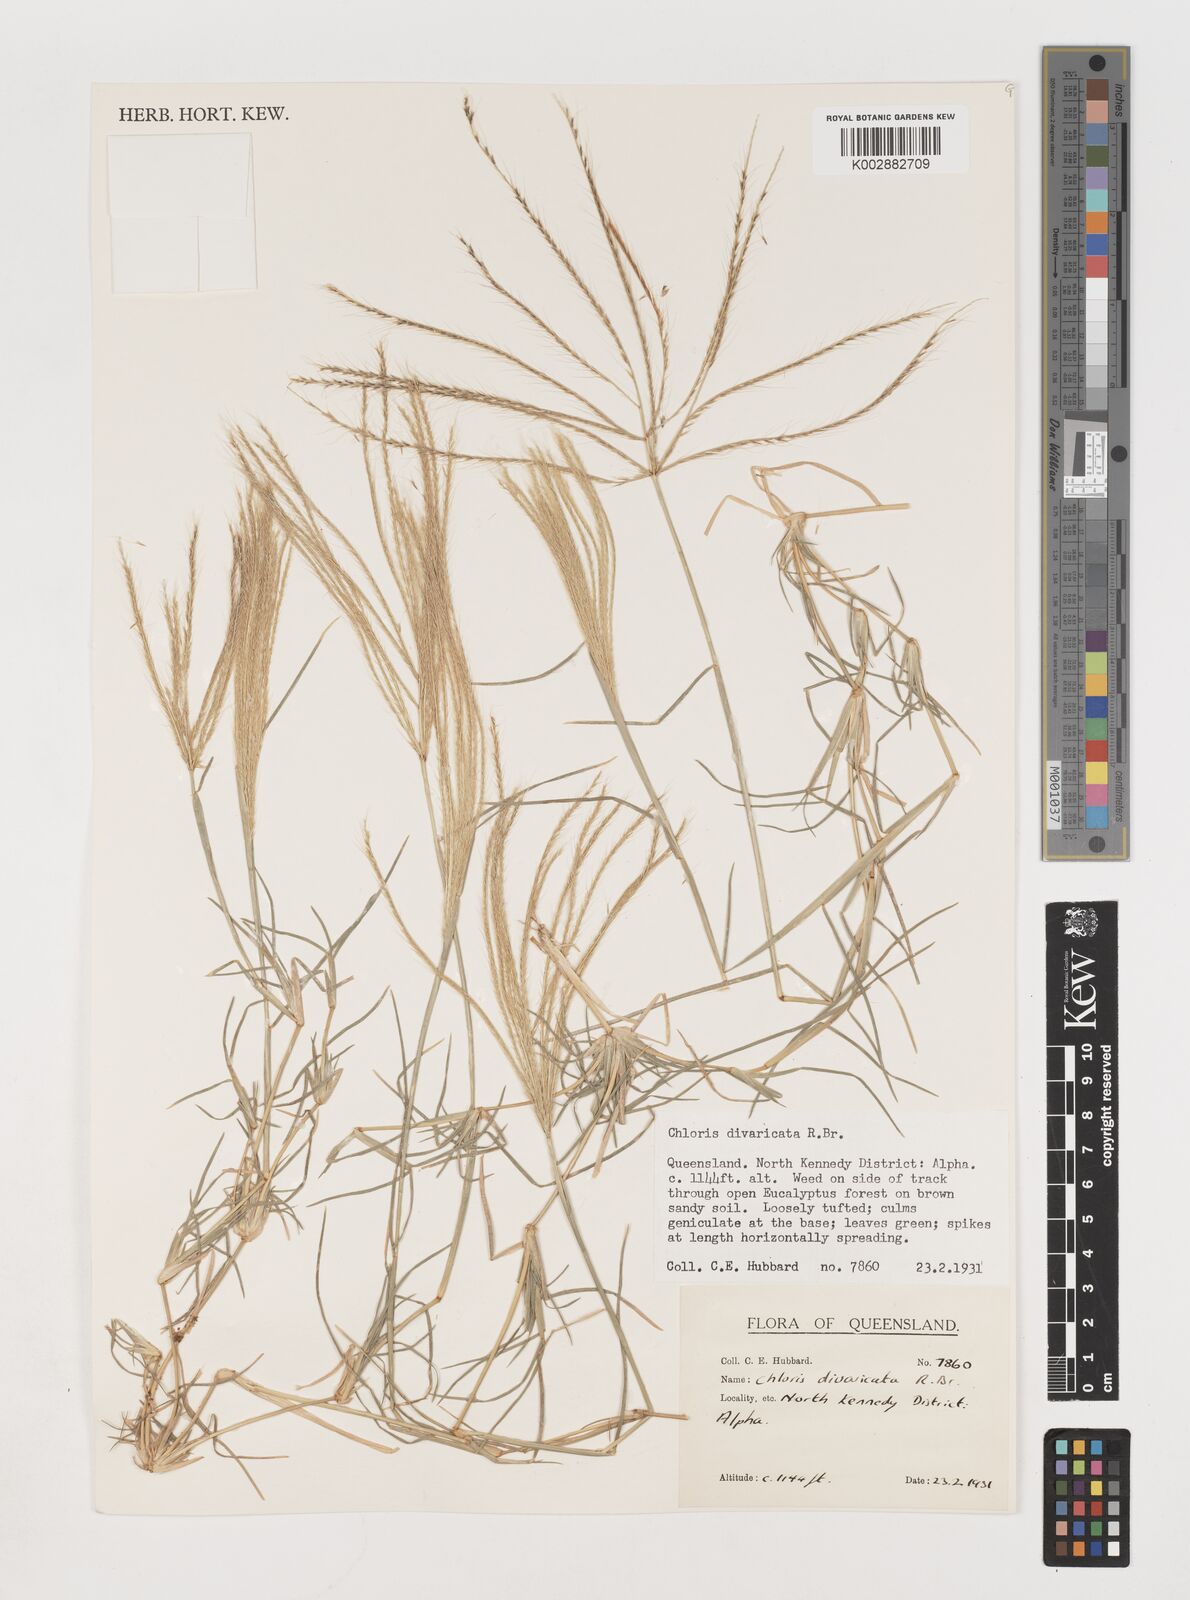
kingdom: Plantae
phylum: Tracheophyta
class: Liliopsida
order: Poales
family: Poaceae
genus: Chloris
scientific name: Chloris divaricata
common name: Spreading windmill grass
